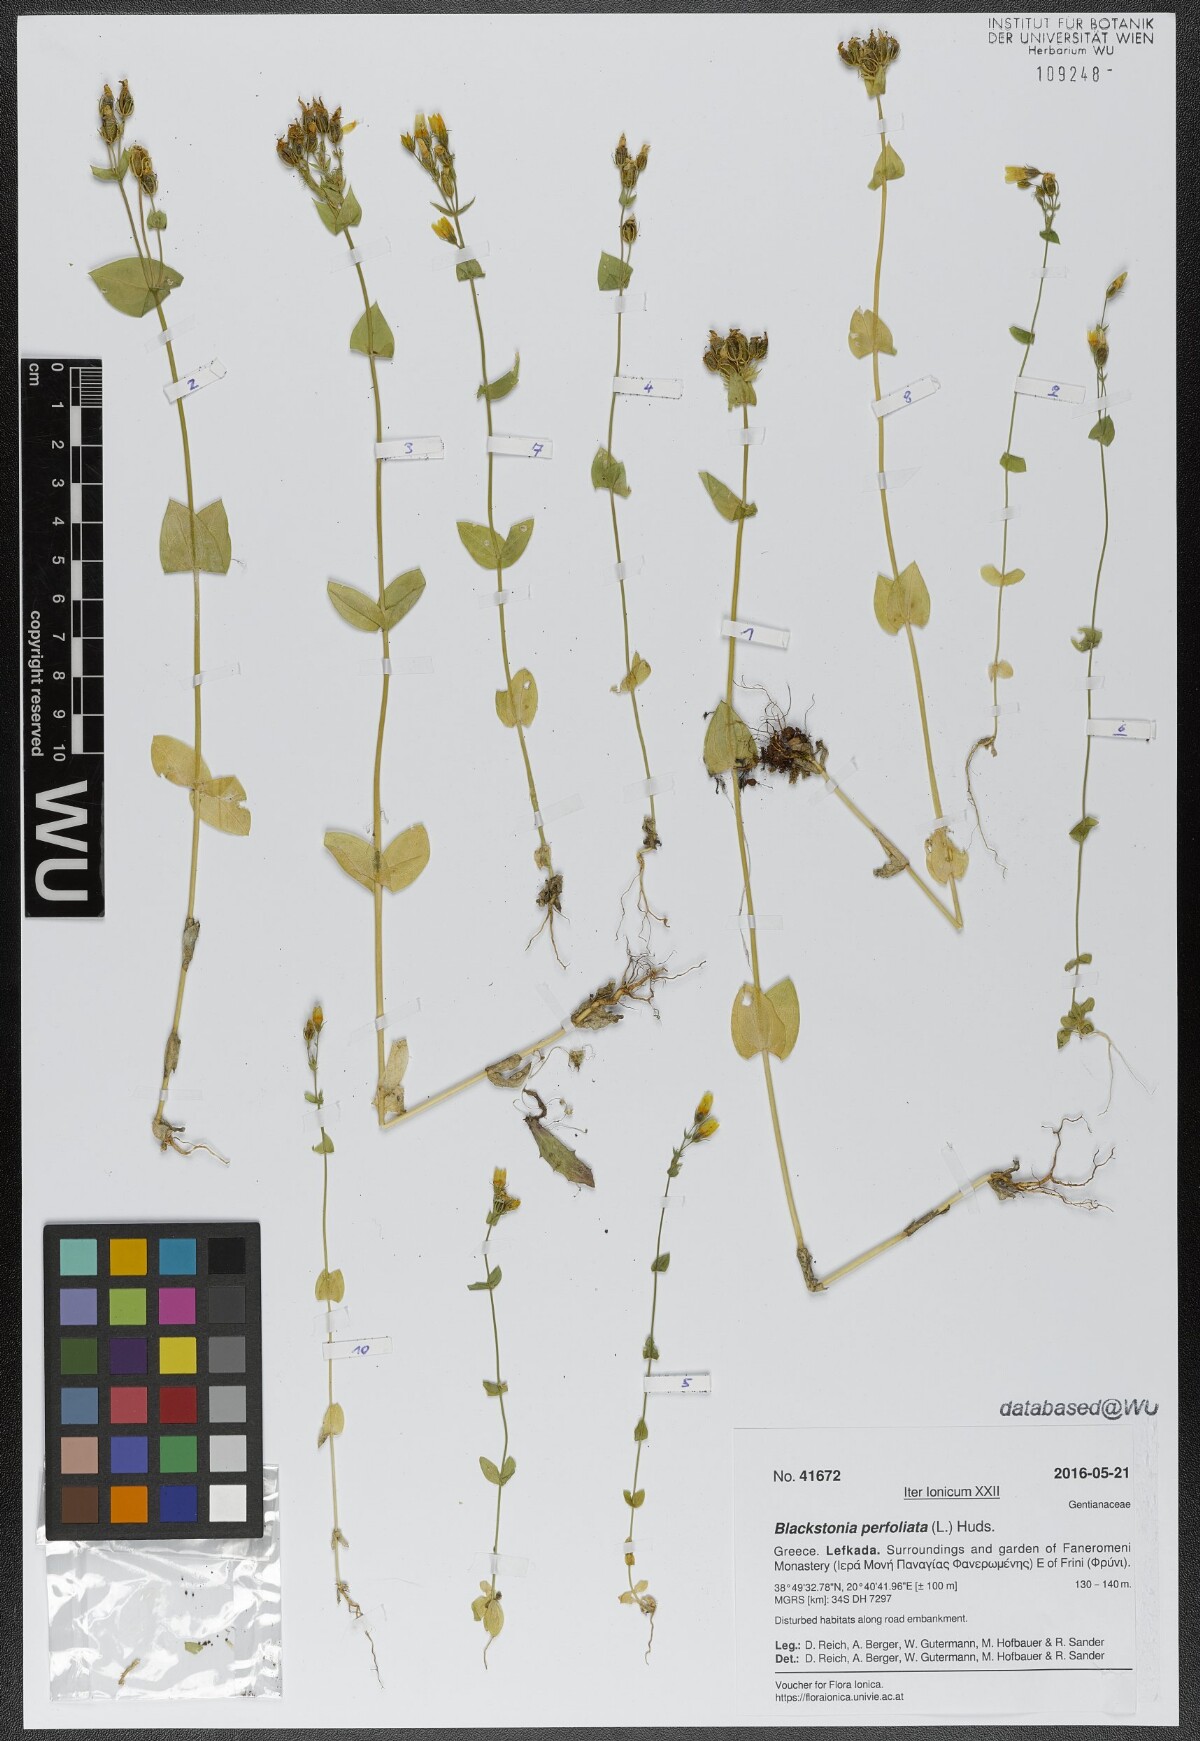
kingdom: Plantae
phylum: Tracheophyta
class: Magnoliopsida
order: Gentianales
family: Gentianaceae
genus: Blackstonia
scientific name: Blackstonia perfoliata
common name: Yellow-wort
